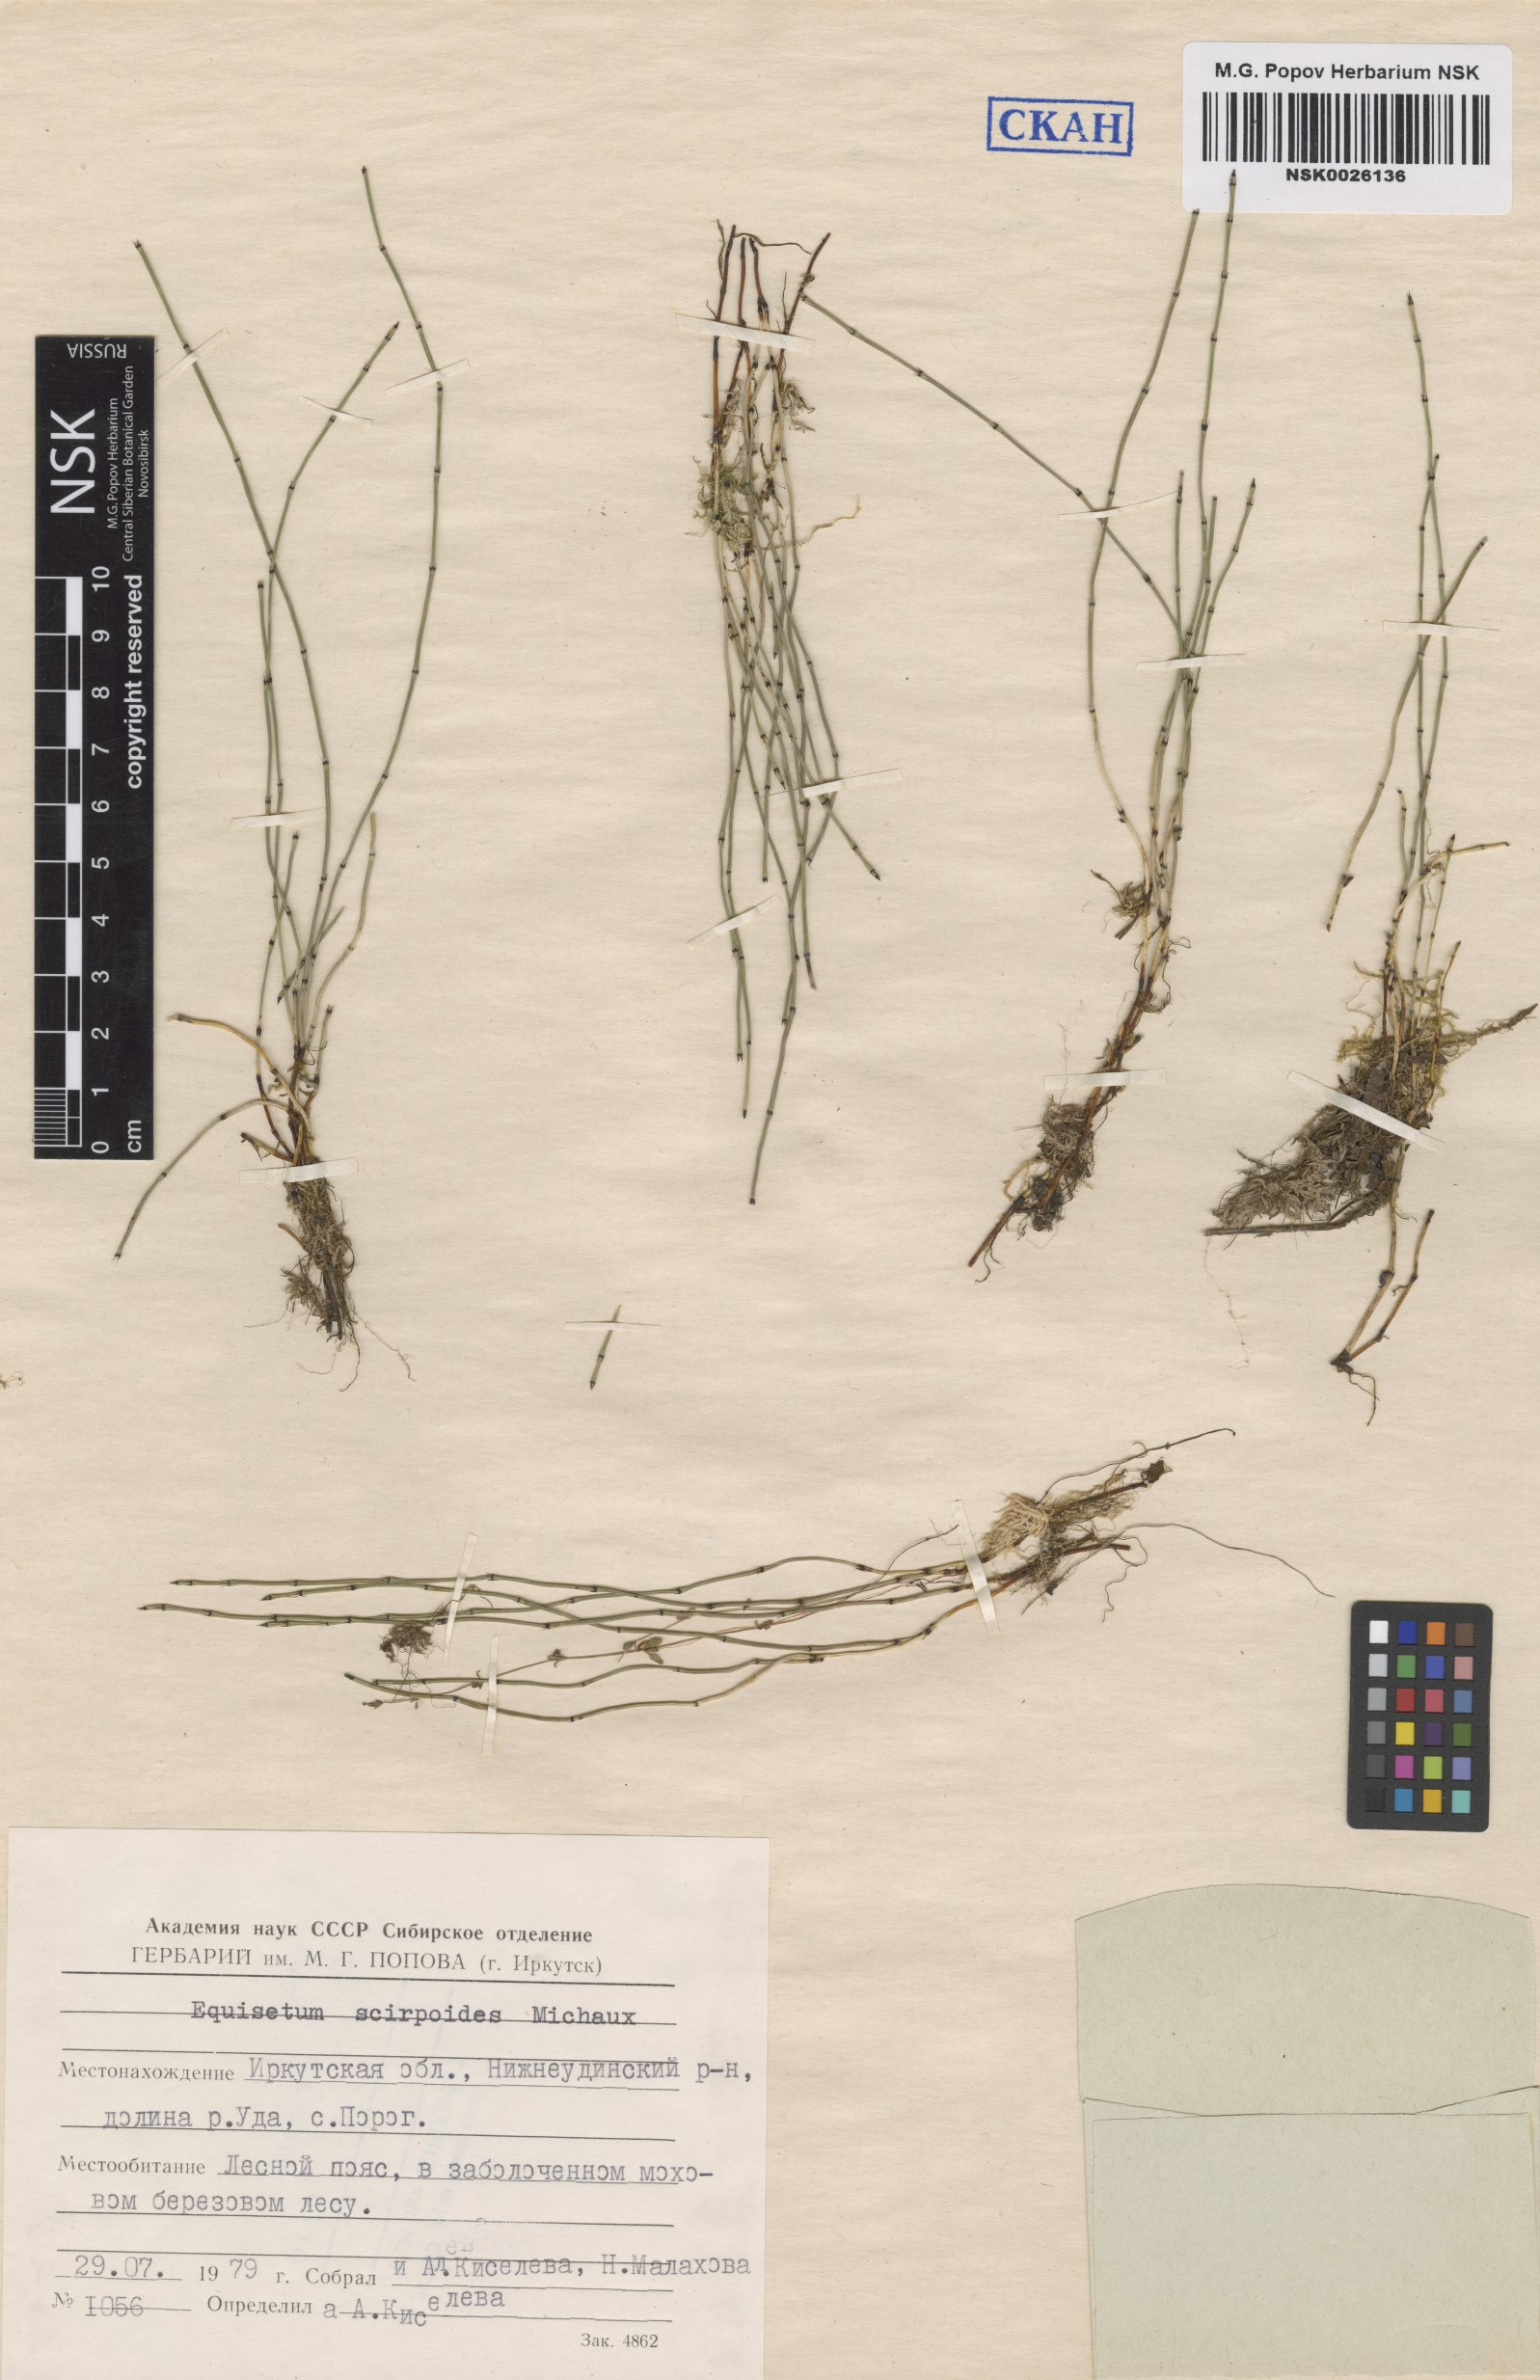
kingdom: Plantae
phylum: Tracheophyta
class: Polypodiopsida
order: Equisetales
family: Equisetaceae
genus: Equisetum
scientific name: Equisetum scirpoides
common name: Delicate horsetail
